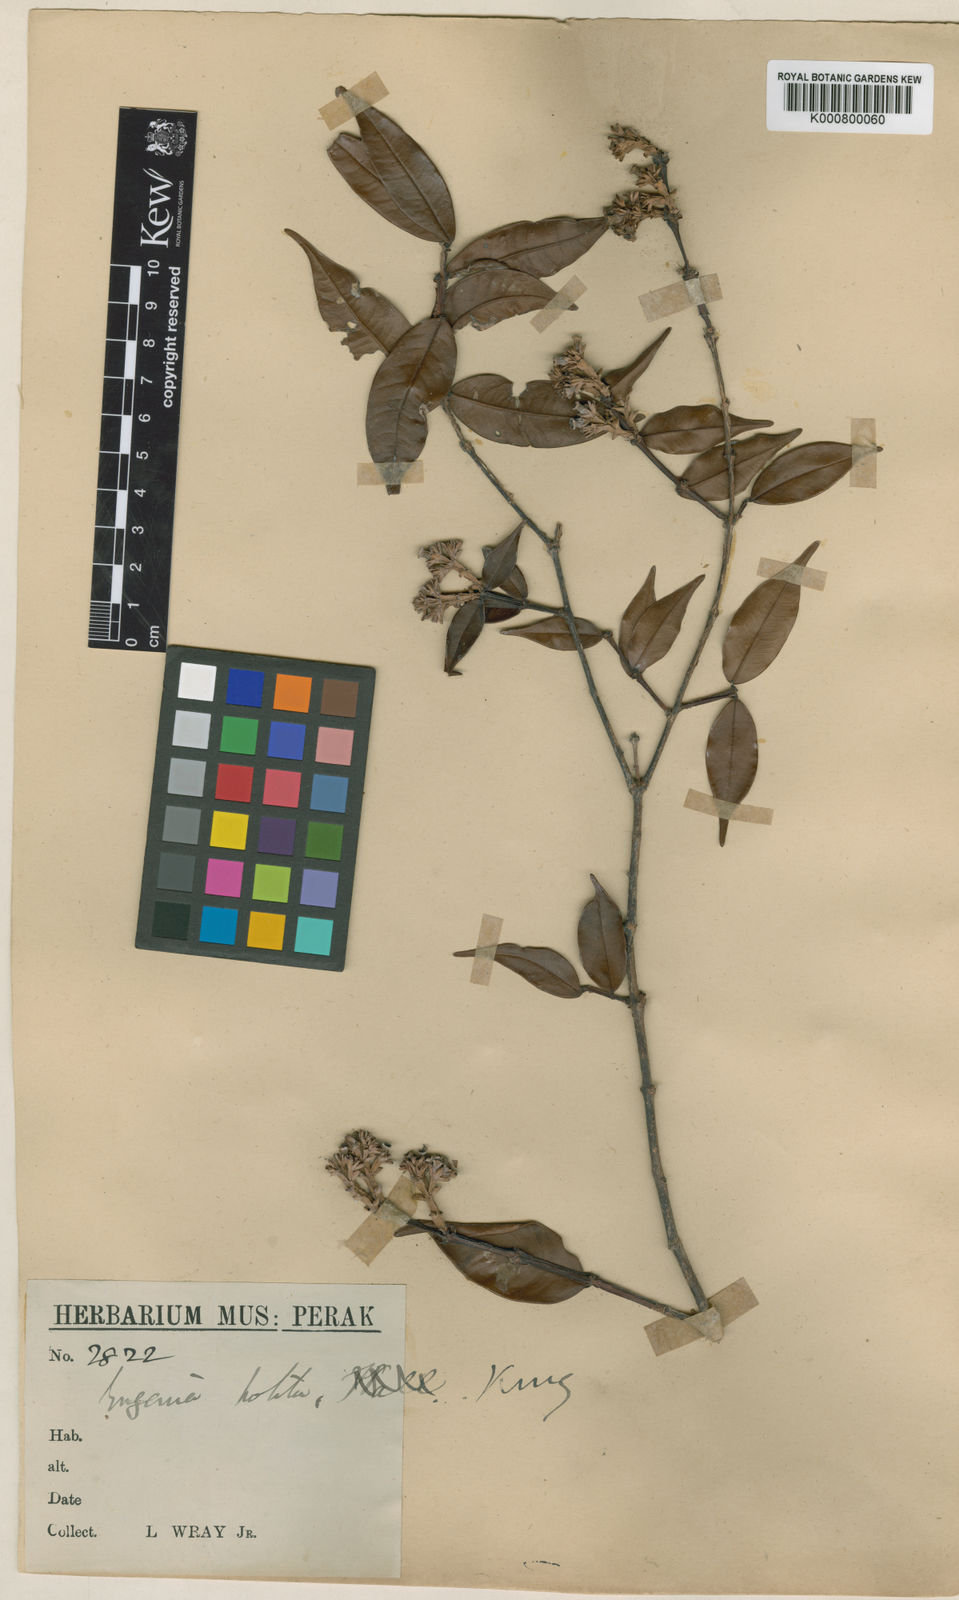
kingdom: Plantae
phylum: Tracheophyta
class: Magnoliopsida
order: Myrtales
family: Myrtaceae
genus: Syzygium
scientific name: Syzygium politum
